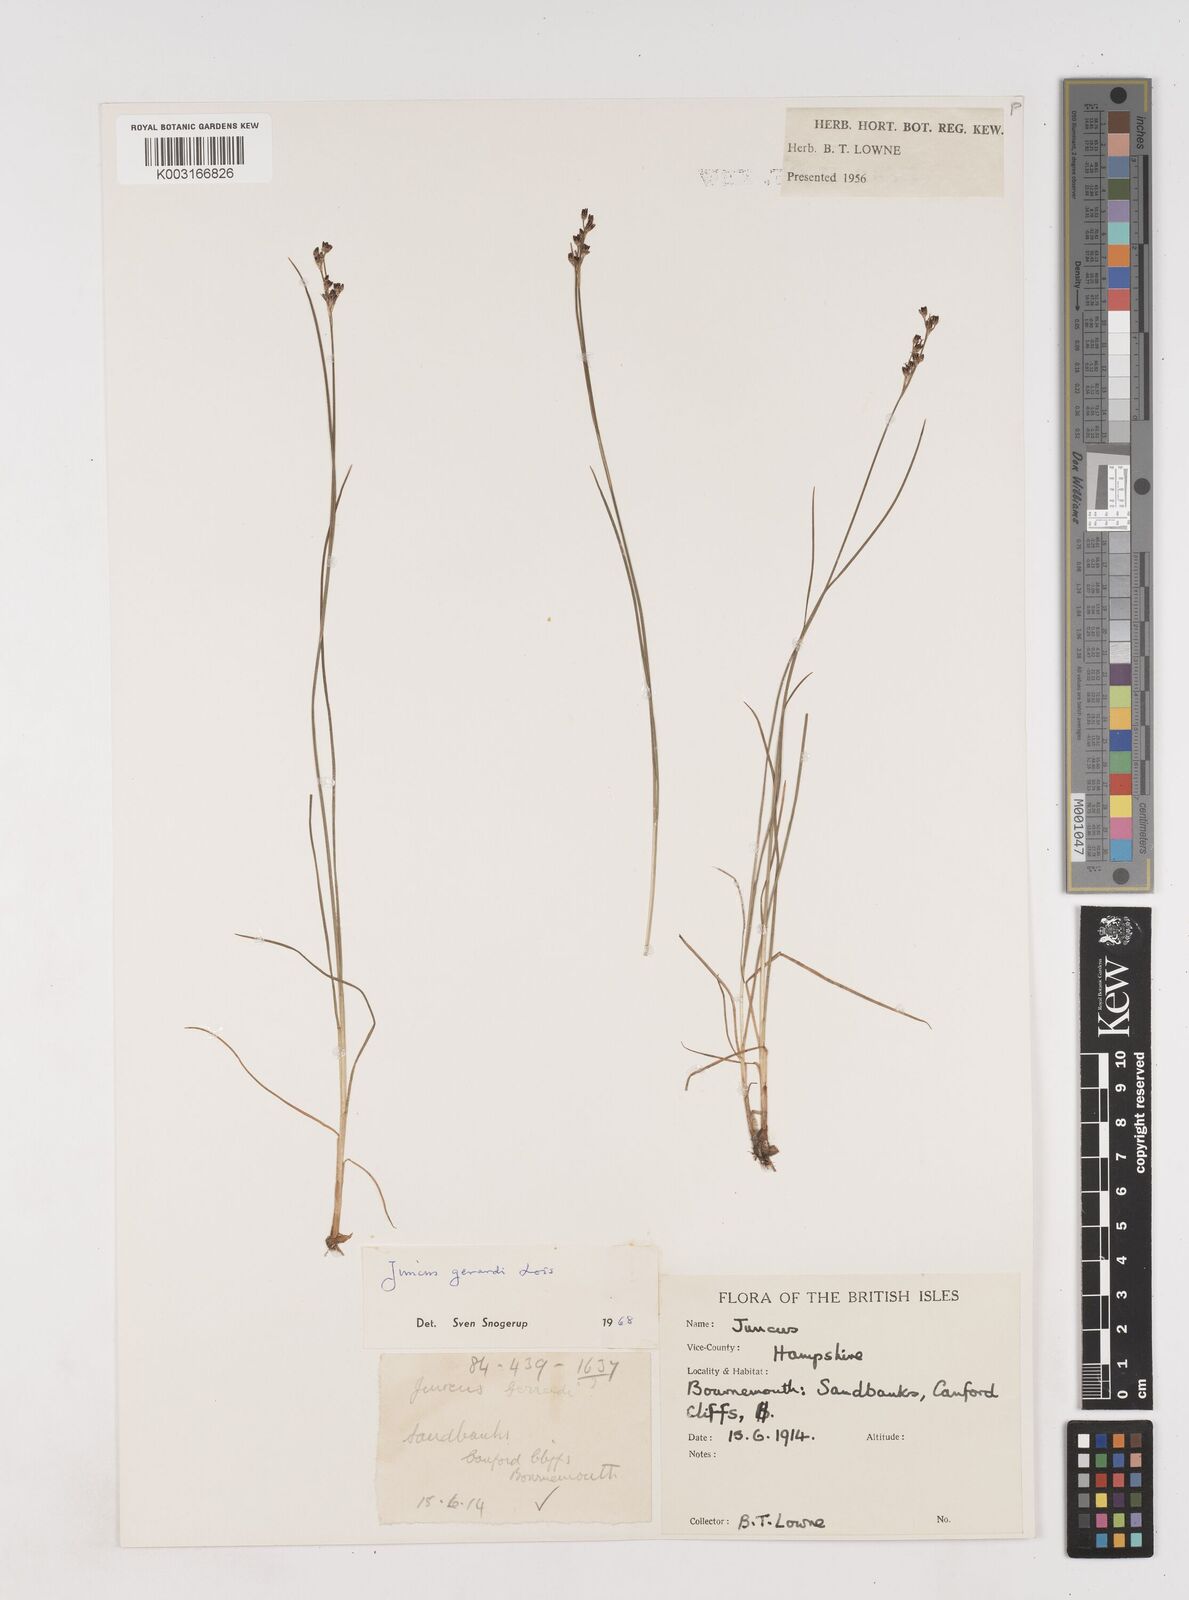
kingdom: Plantae
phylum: Tracheophyta
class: Liliopsida
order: Poales
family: Juncaceae
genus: Juncus
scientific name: Juncus gerardi
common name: Saltmarsh rush
